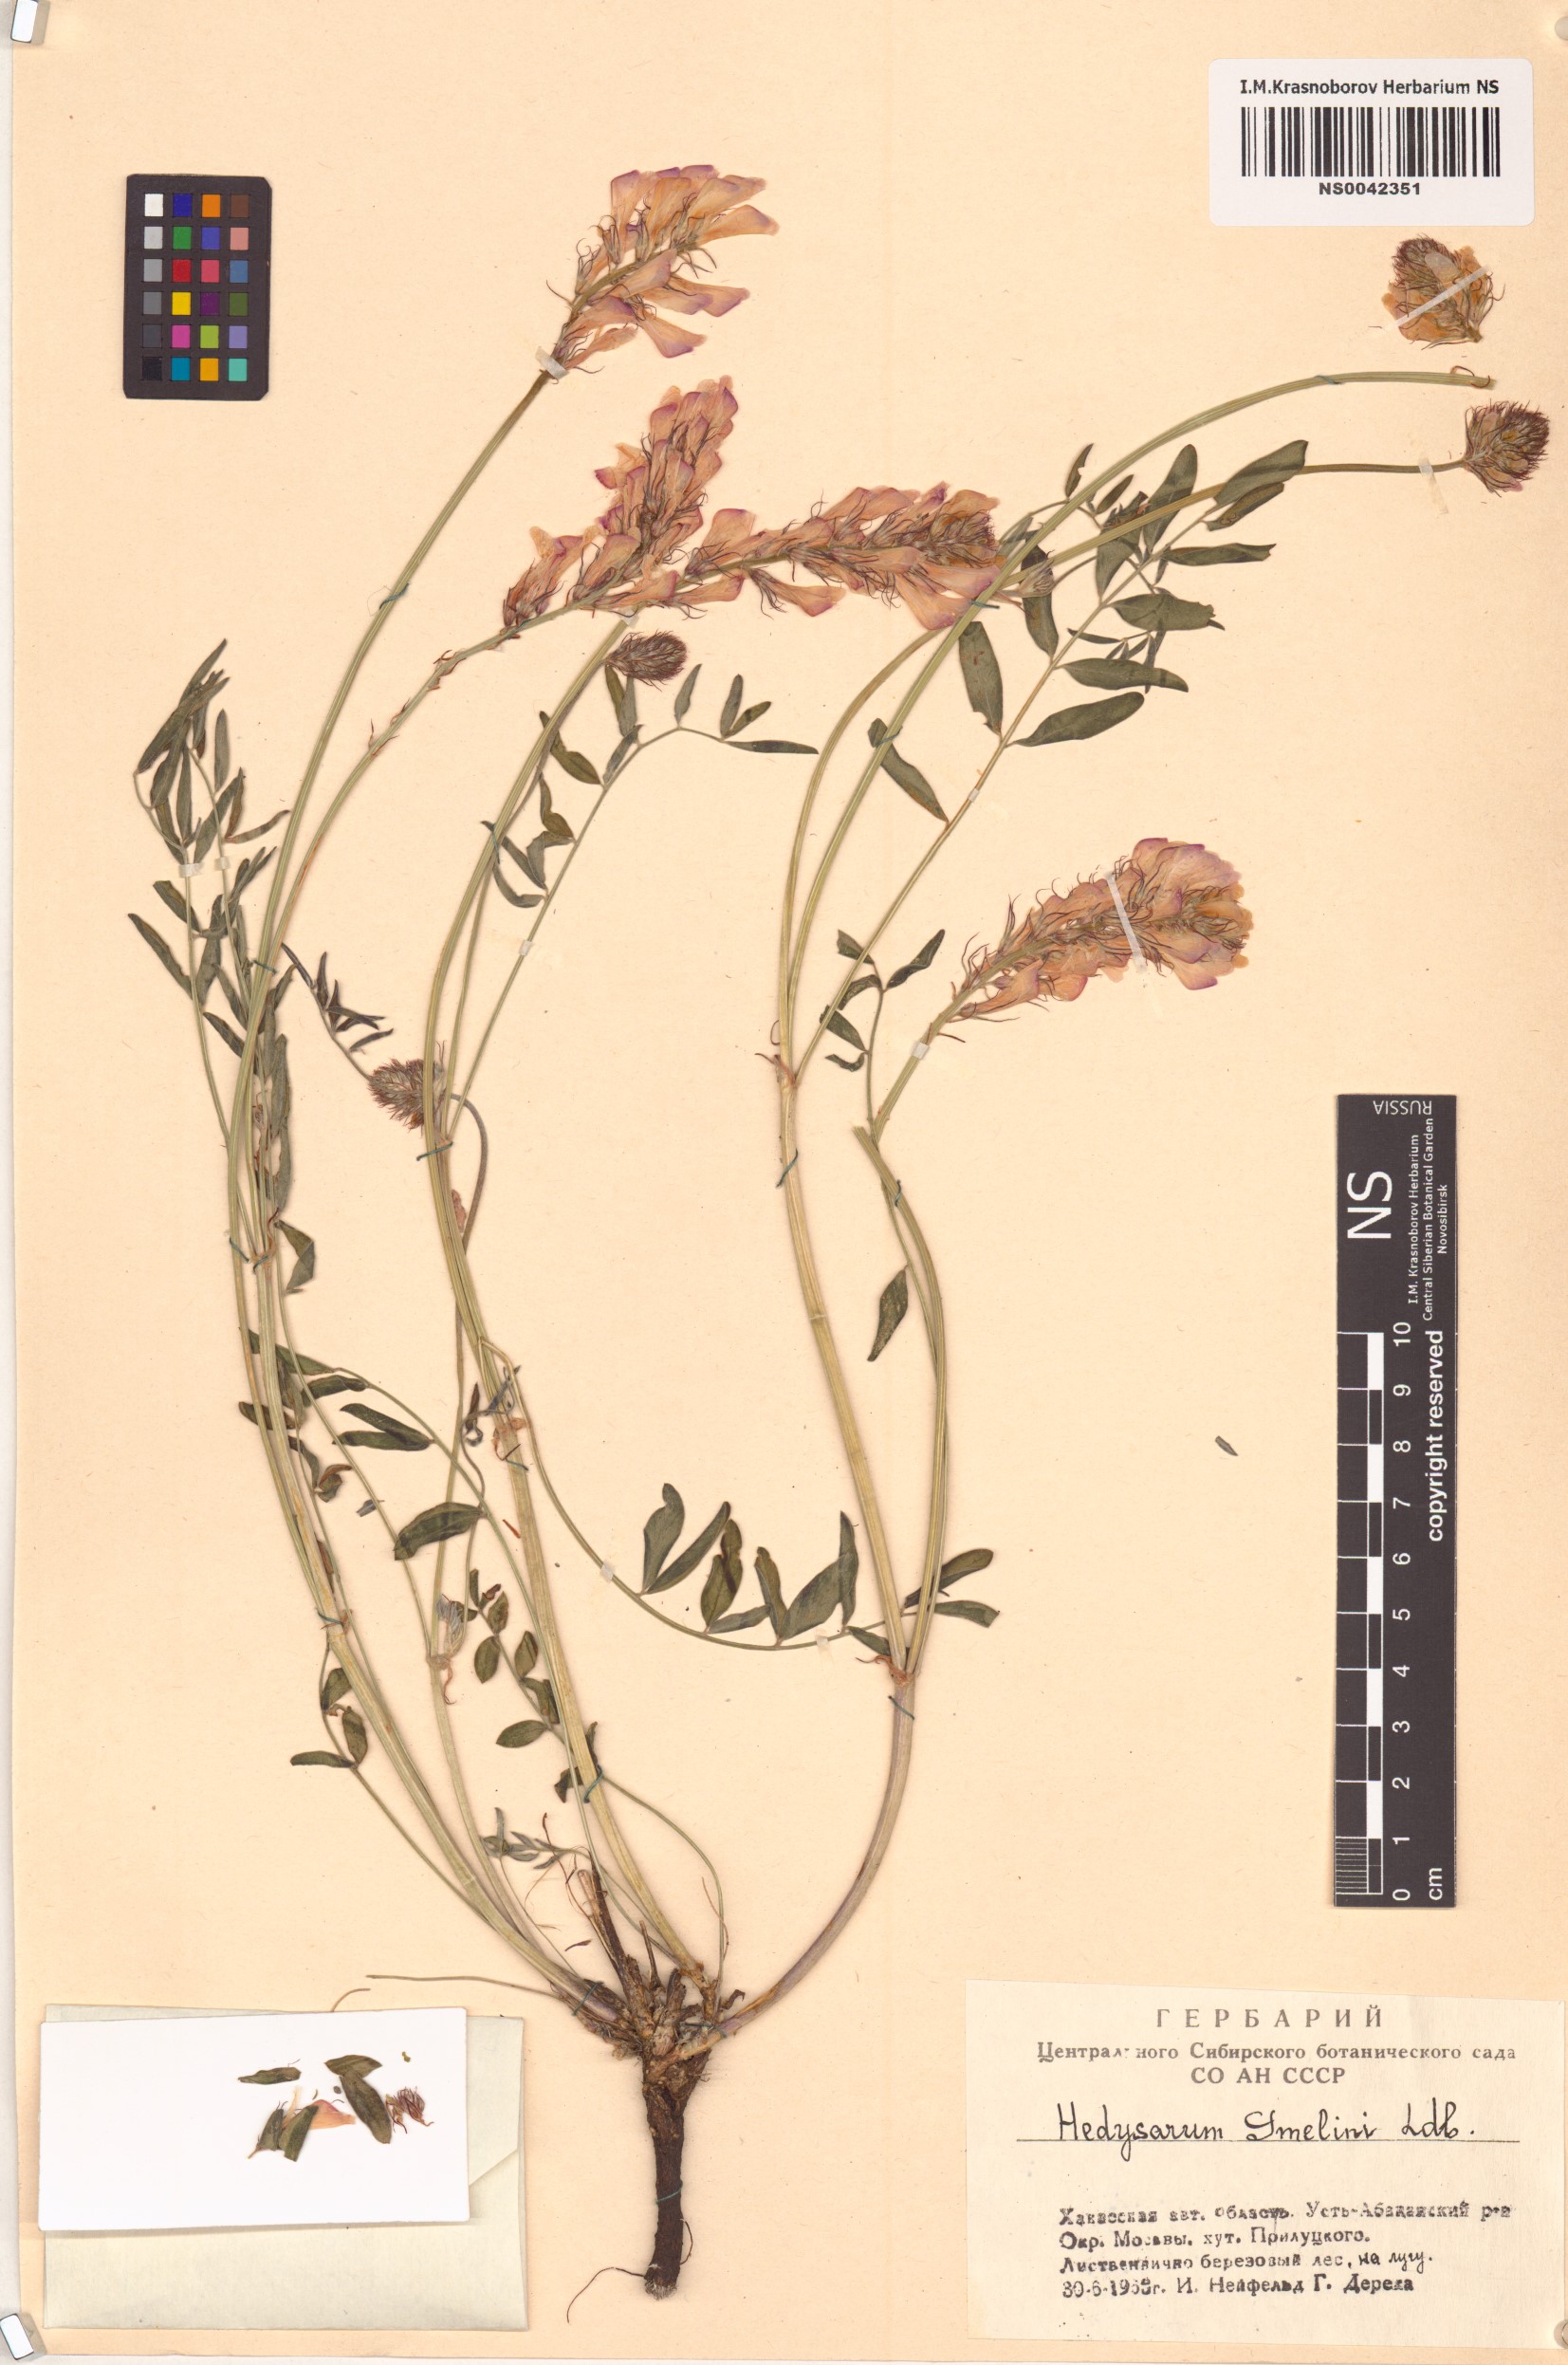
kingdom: Plantae
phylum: Tracheophyta
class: Magnoliopsida
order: Fabales
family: Fabaceae
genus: Hedysarum
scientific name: Hedysarum gmelinii
